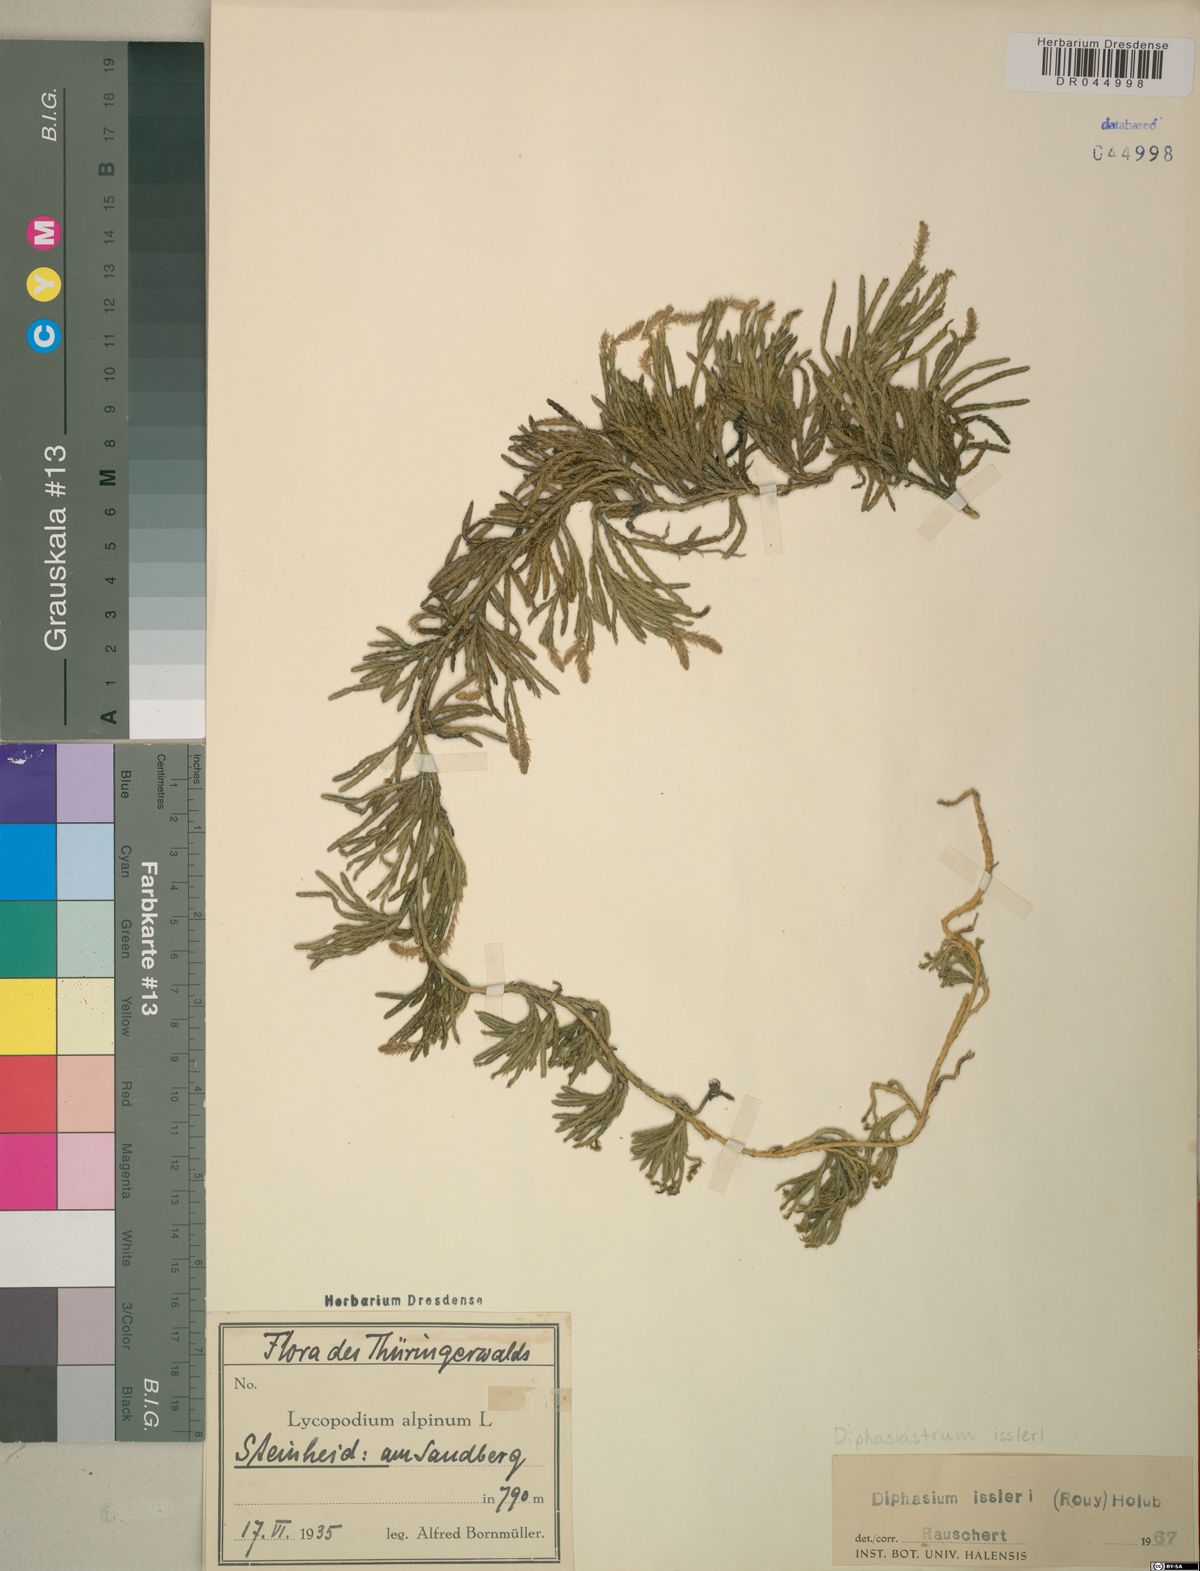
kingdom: Plantae
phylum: Tracheophyta
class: Lycopodiopsida
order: Lycopodiales
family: Lycopodiaceae
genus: Diphasiastrum
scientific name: Diphasiastrum issleri
